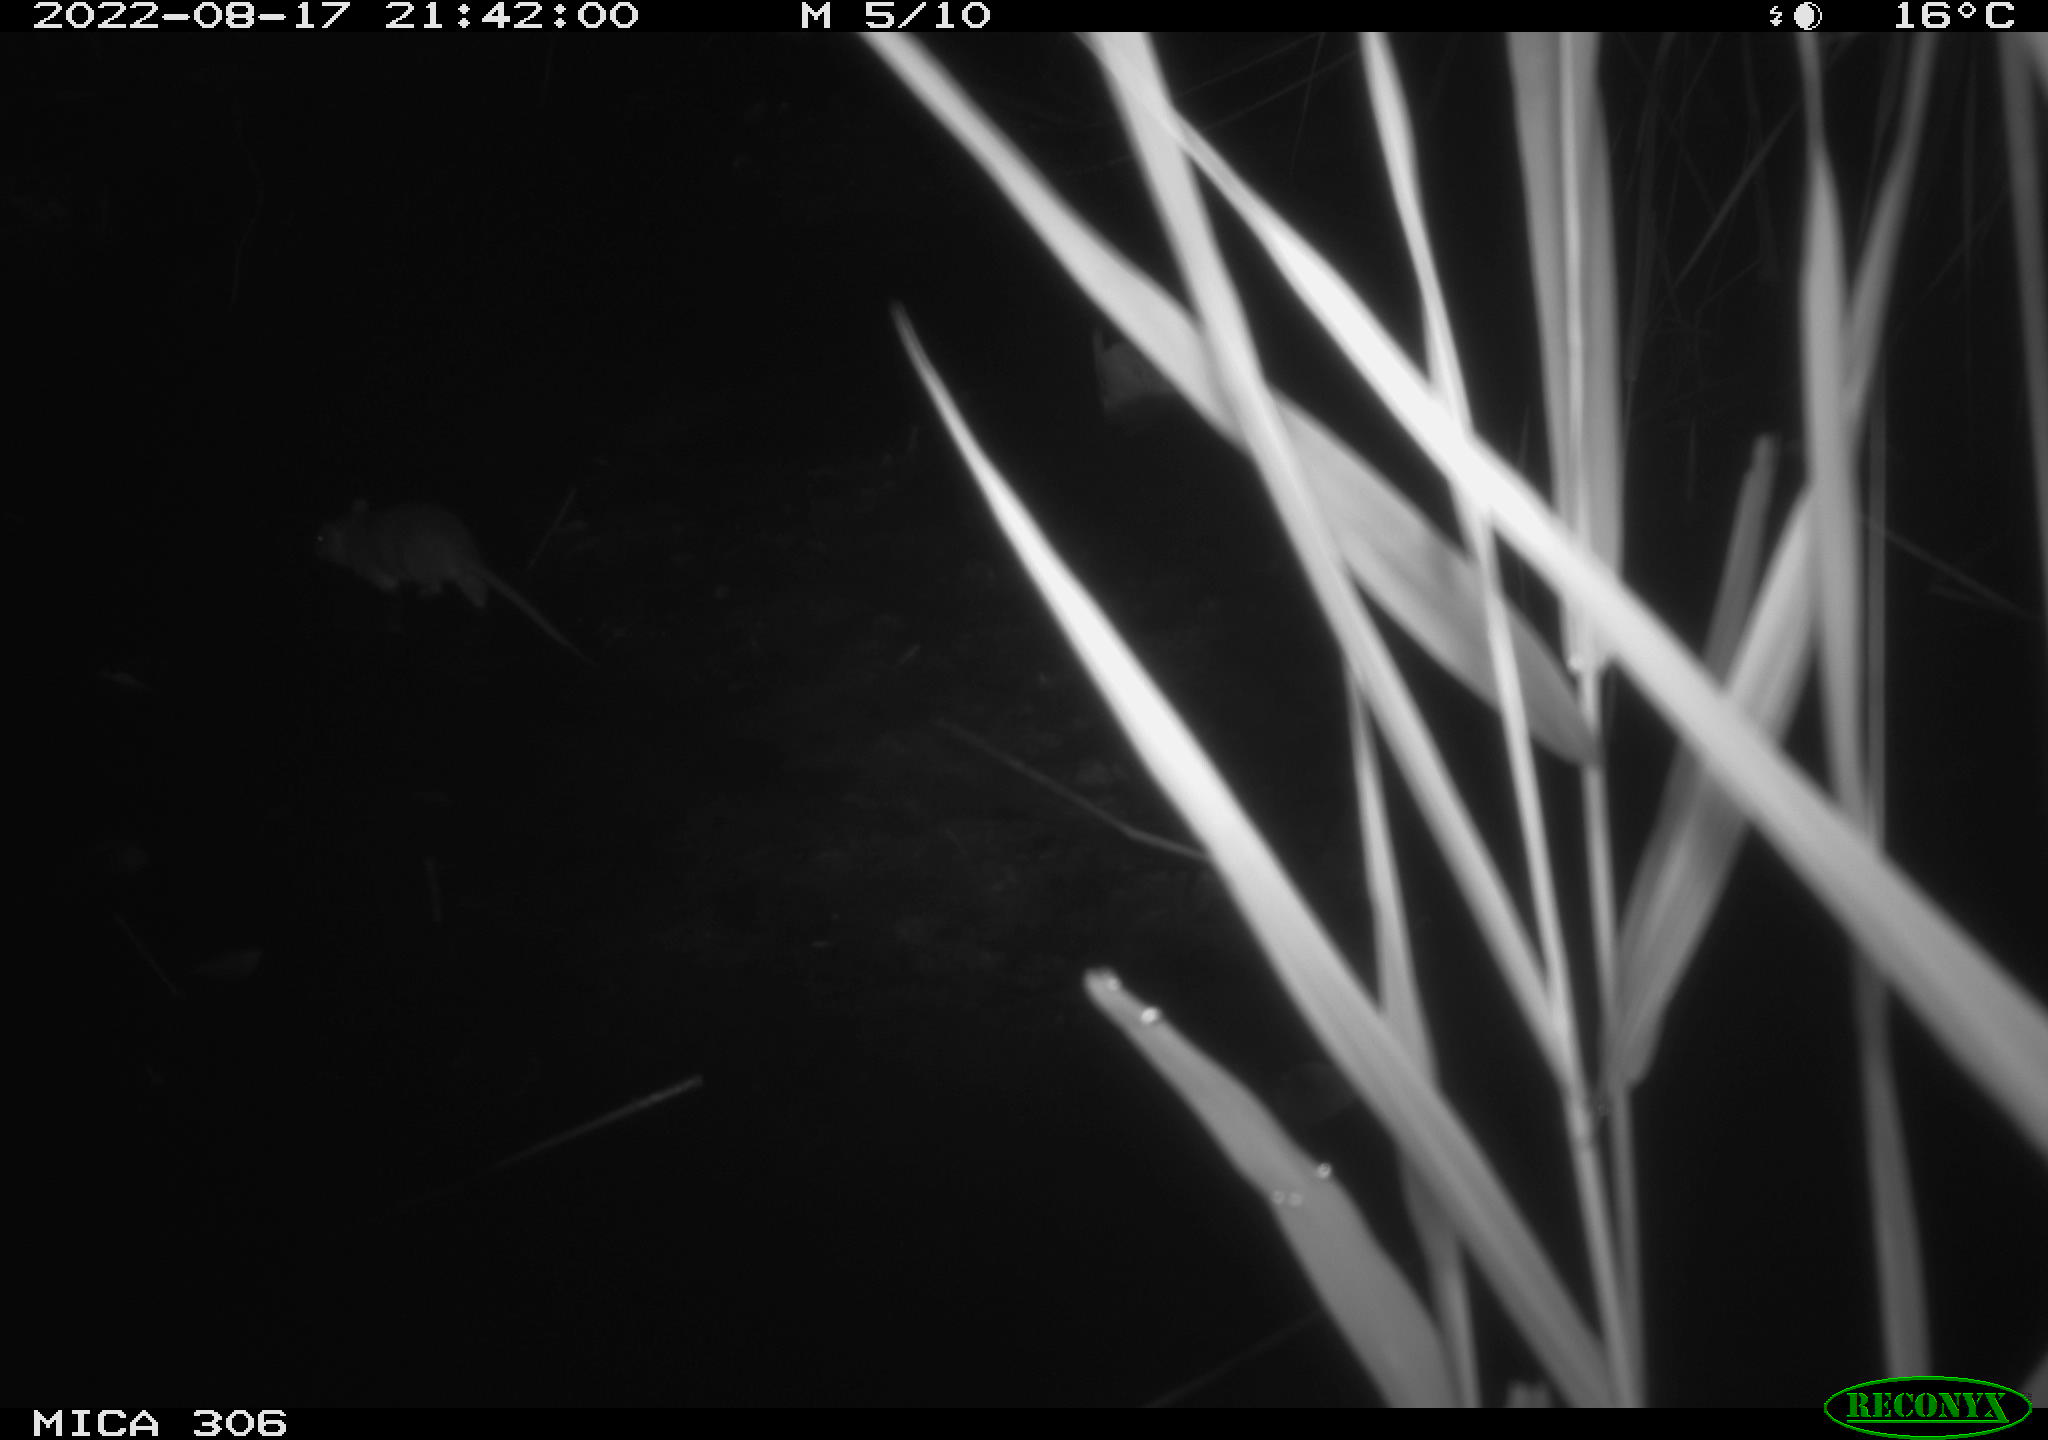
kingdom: Animalia
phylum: Chordata
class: Mammalia
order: Rodentia
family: Muridae
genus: Rattus
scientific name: Rattus norvegicus
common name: Brown rat
